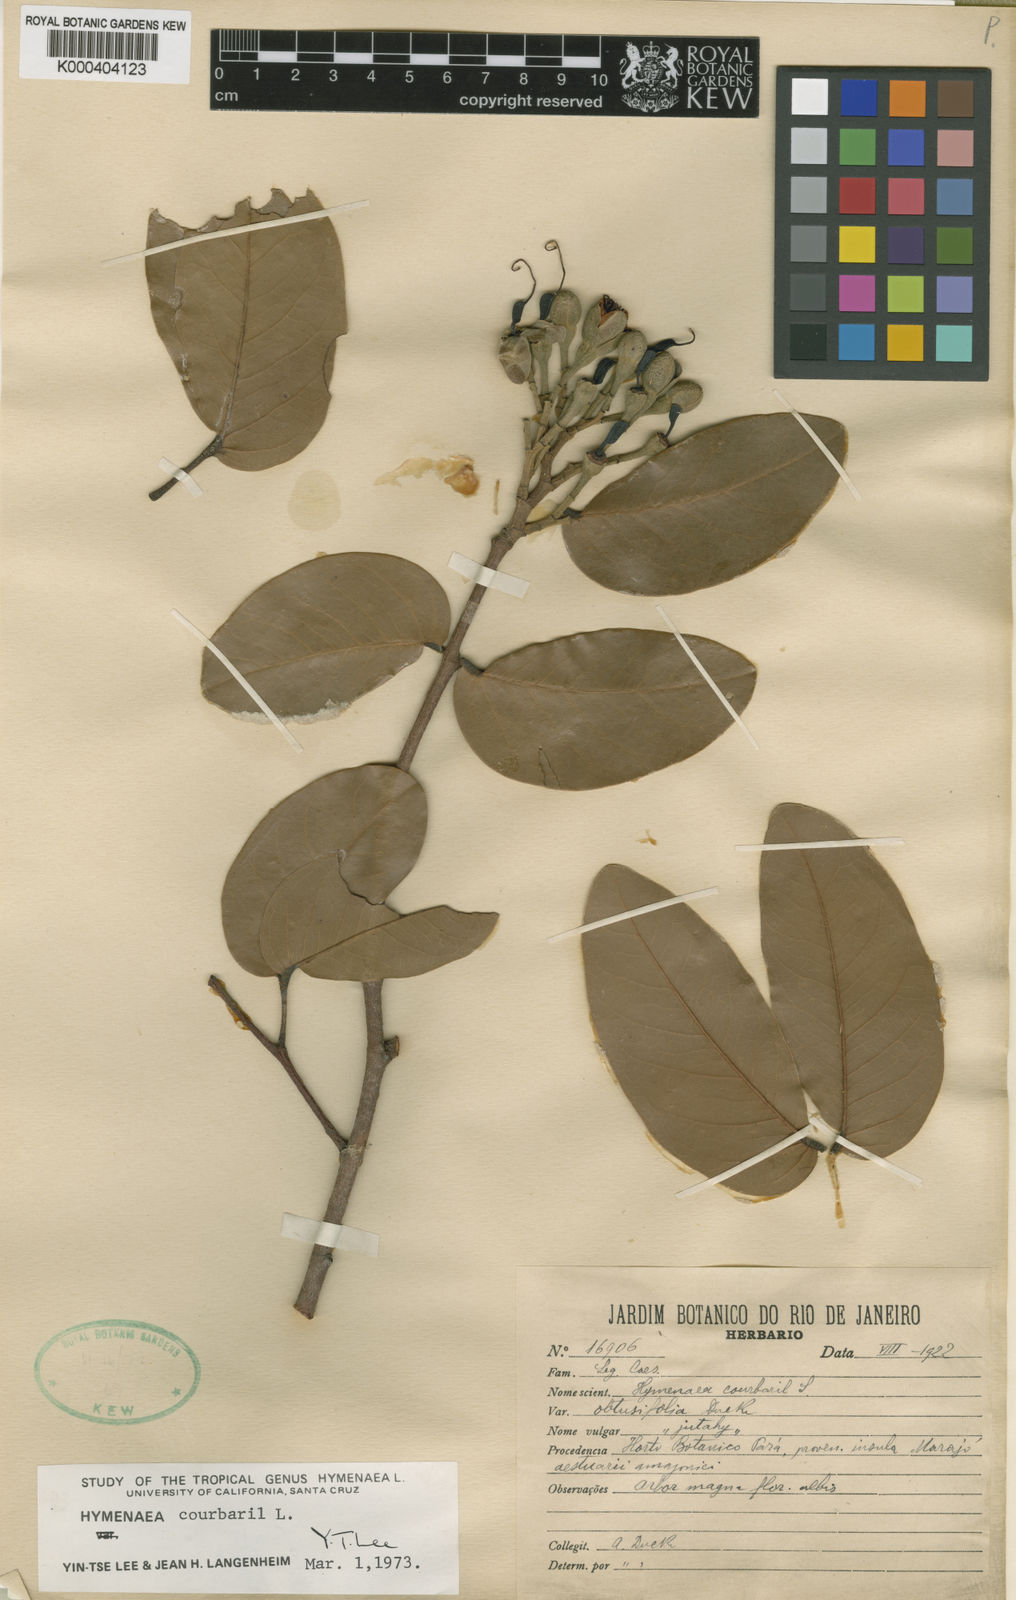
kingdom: Plantae
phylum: Tracheophyta
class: Magnoliopsida
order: Fabales
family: Fabaceae
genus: Hymenaea
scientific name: Hymenaea courbaril
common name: Brazilian copal
